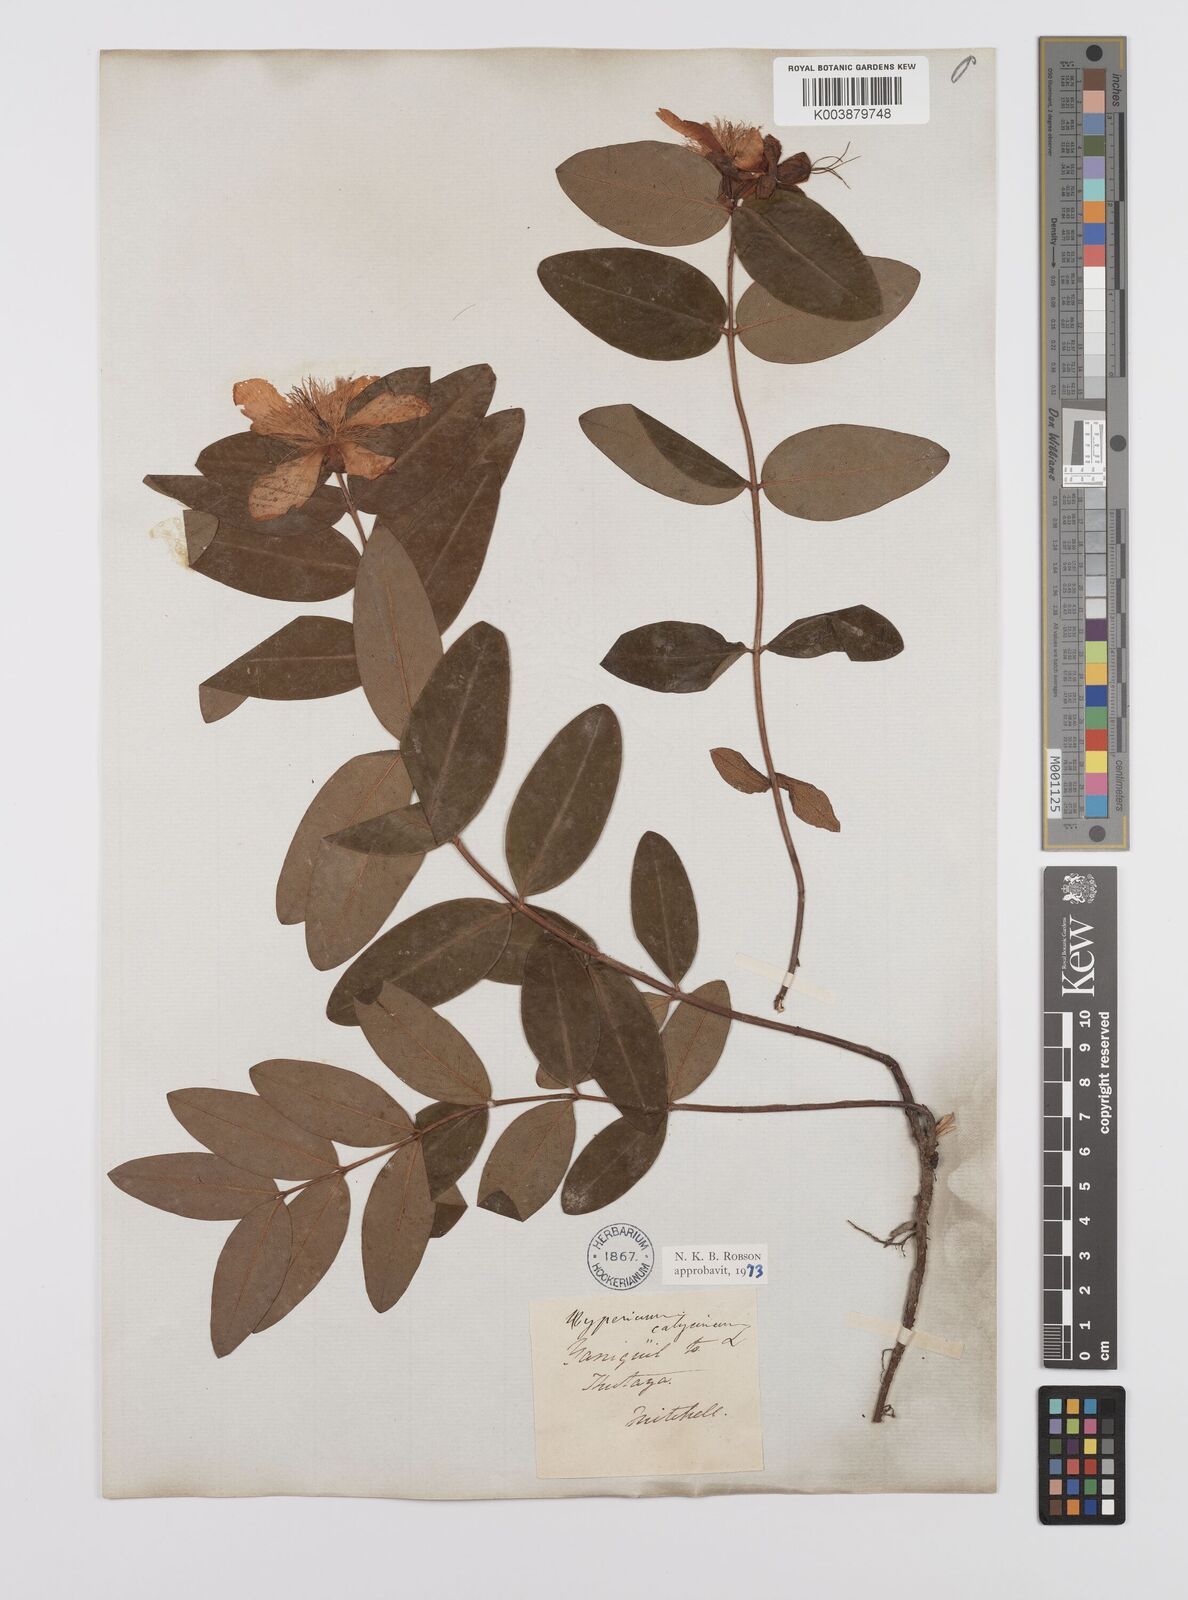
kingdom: Plantae
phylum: Tracheophyta
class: Magnoliopsida
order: Malpighiales
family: Hypericaceae
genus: Hypericum
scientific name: Hypericum calycinum
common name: Rose-of-sharon
